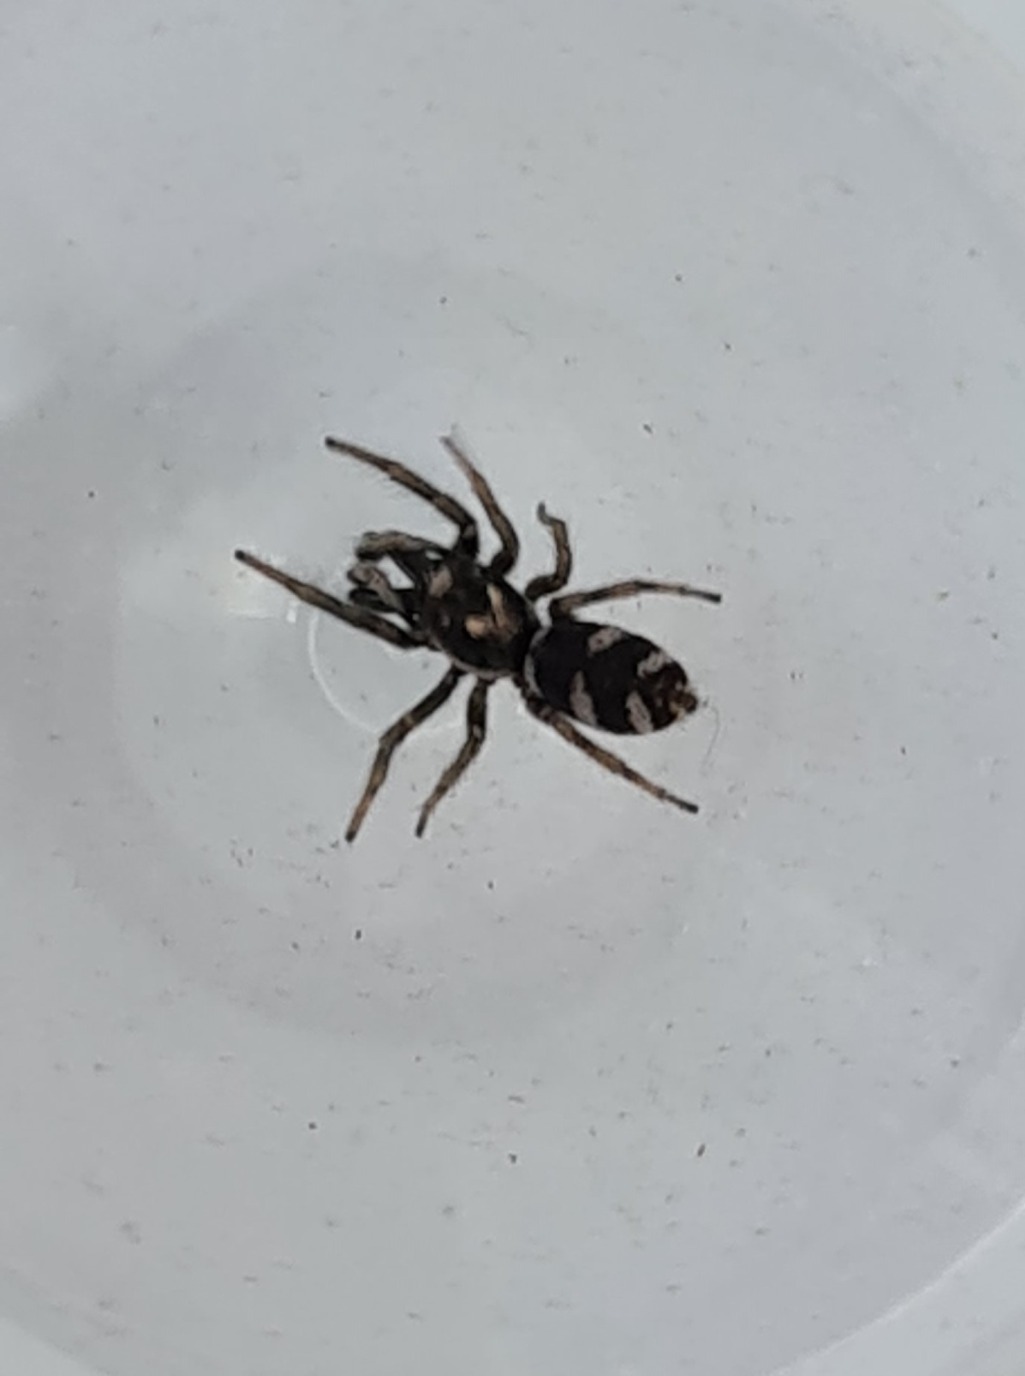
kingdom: Animalia
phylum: Arthropoda
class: Arachnida
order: Araneae
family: Salticidae
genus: Salticus
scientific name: Salticus scenicus
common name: Almindelig zebraedderkop
